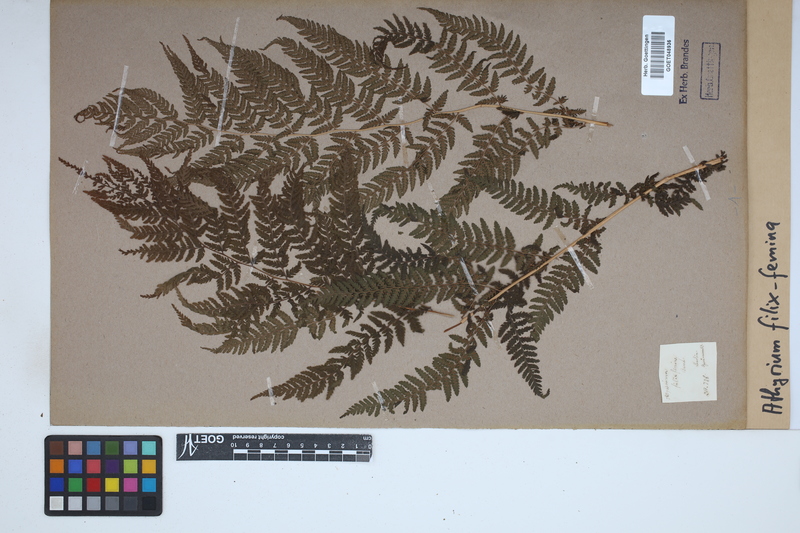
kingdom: Plantae
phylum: Tracheophyta
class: Polypodiopsida
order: Polypodiales
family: Athyriaceae
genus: Athyrium
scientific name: Athyrium filix-femina
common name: Lady fern
